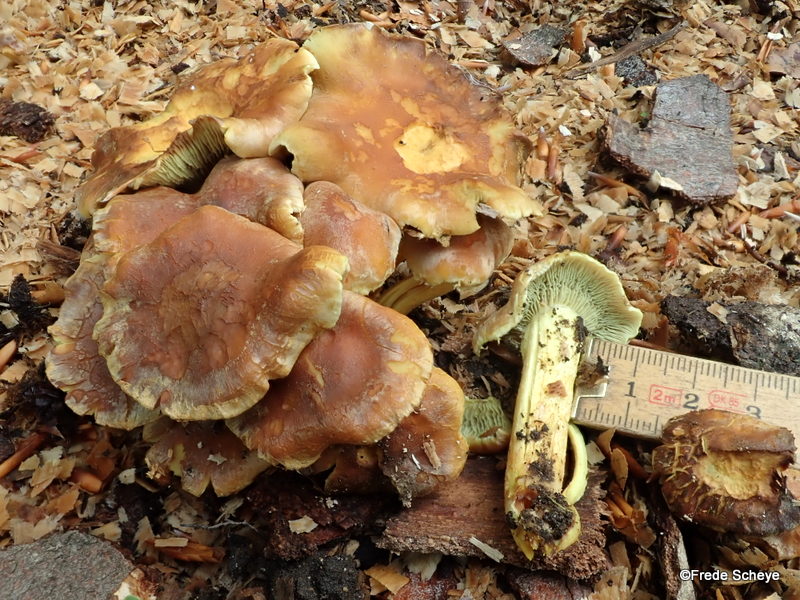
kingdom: Fungi
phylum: Basidiomycota
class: Agaricomycetes
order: Agaricales
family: Strophariaceae
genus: Hypholoma
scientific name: Hypholoma fasciculare
